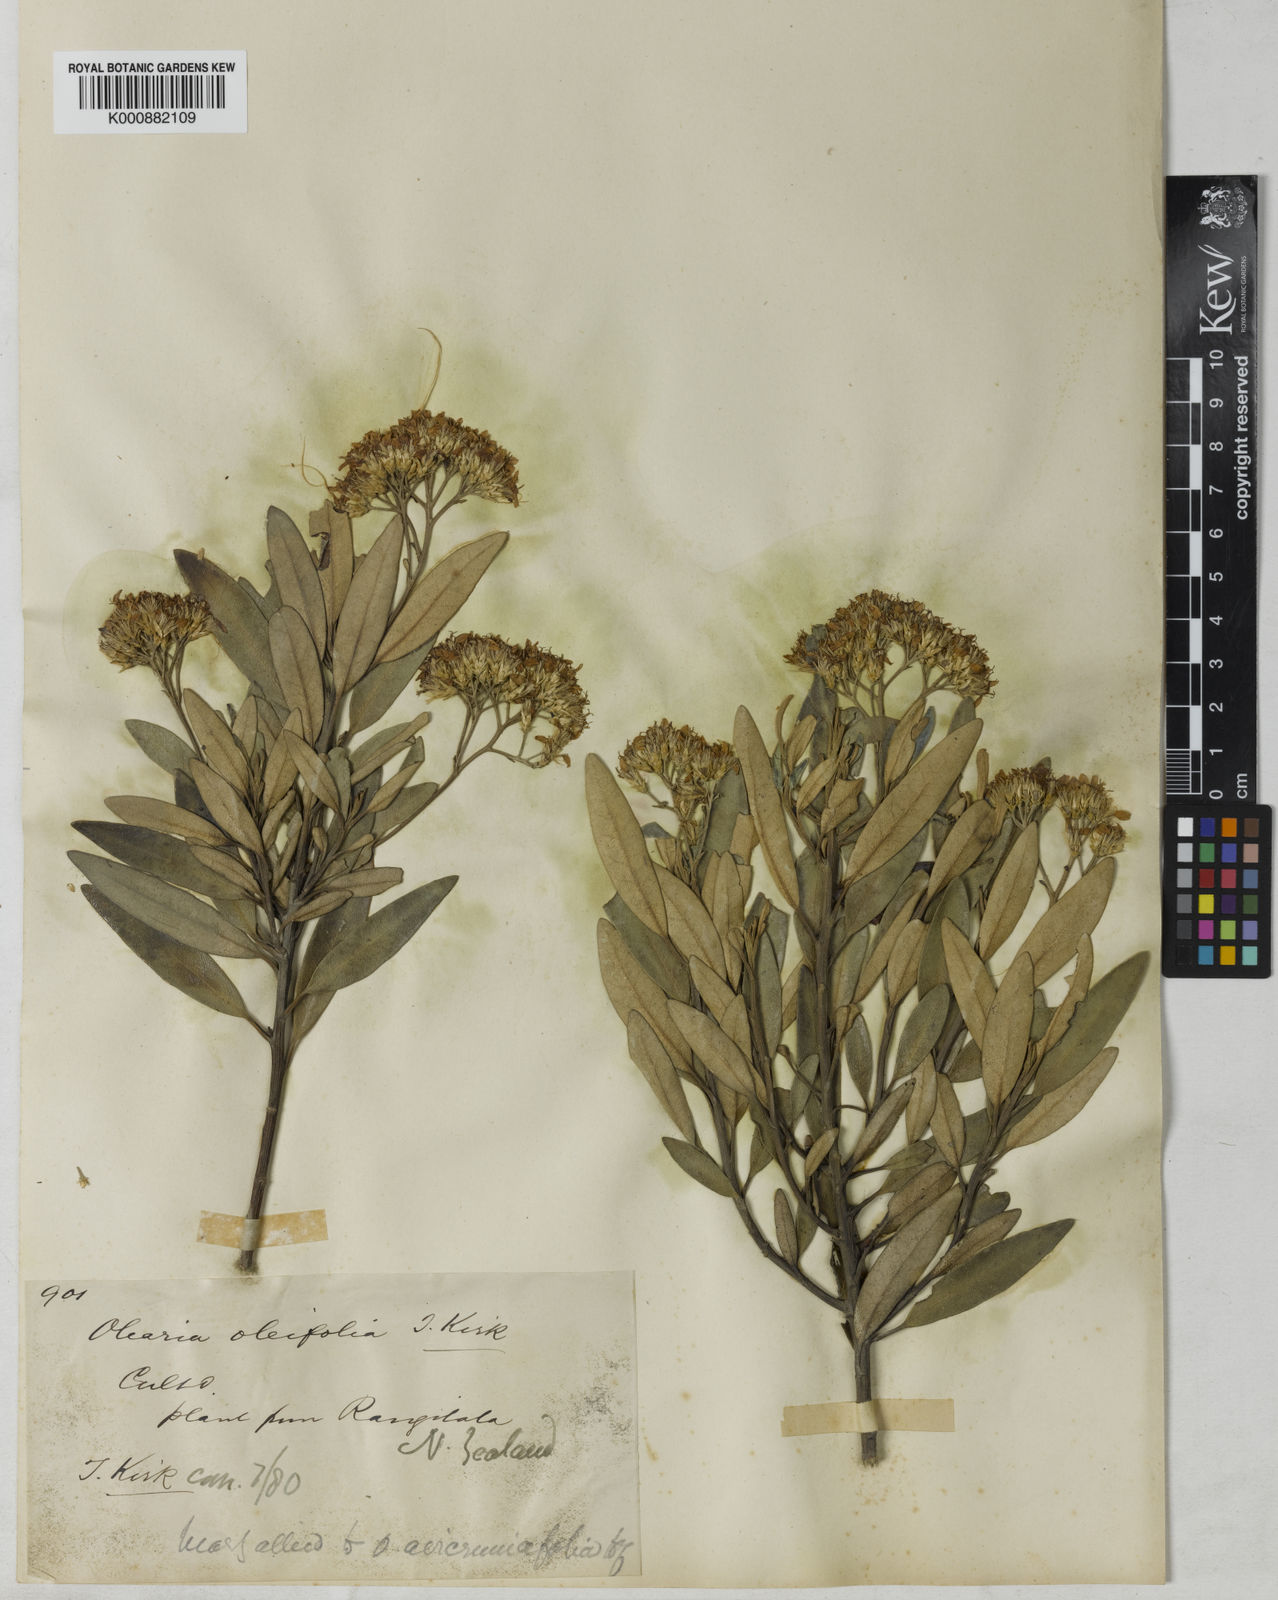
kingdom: Plantae
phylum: Tracheophyta
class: Magnoliopsida
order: Asterales
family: Asteraceae
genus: Olearia
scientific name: Olearia oleifolia
